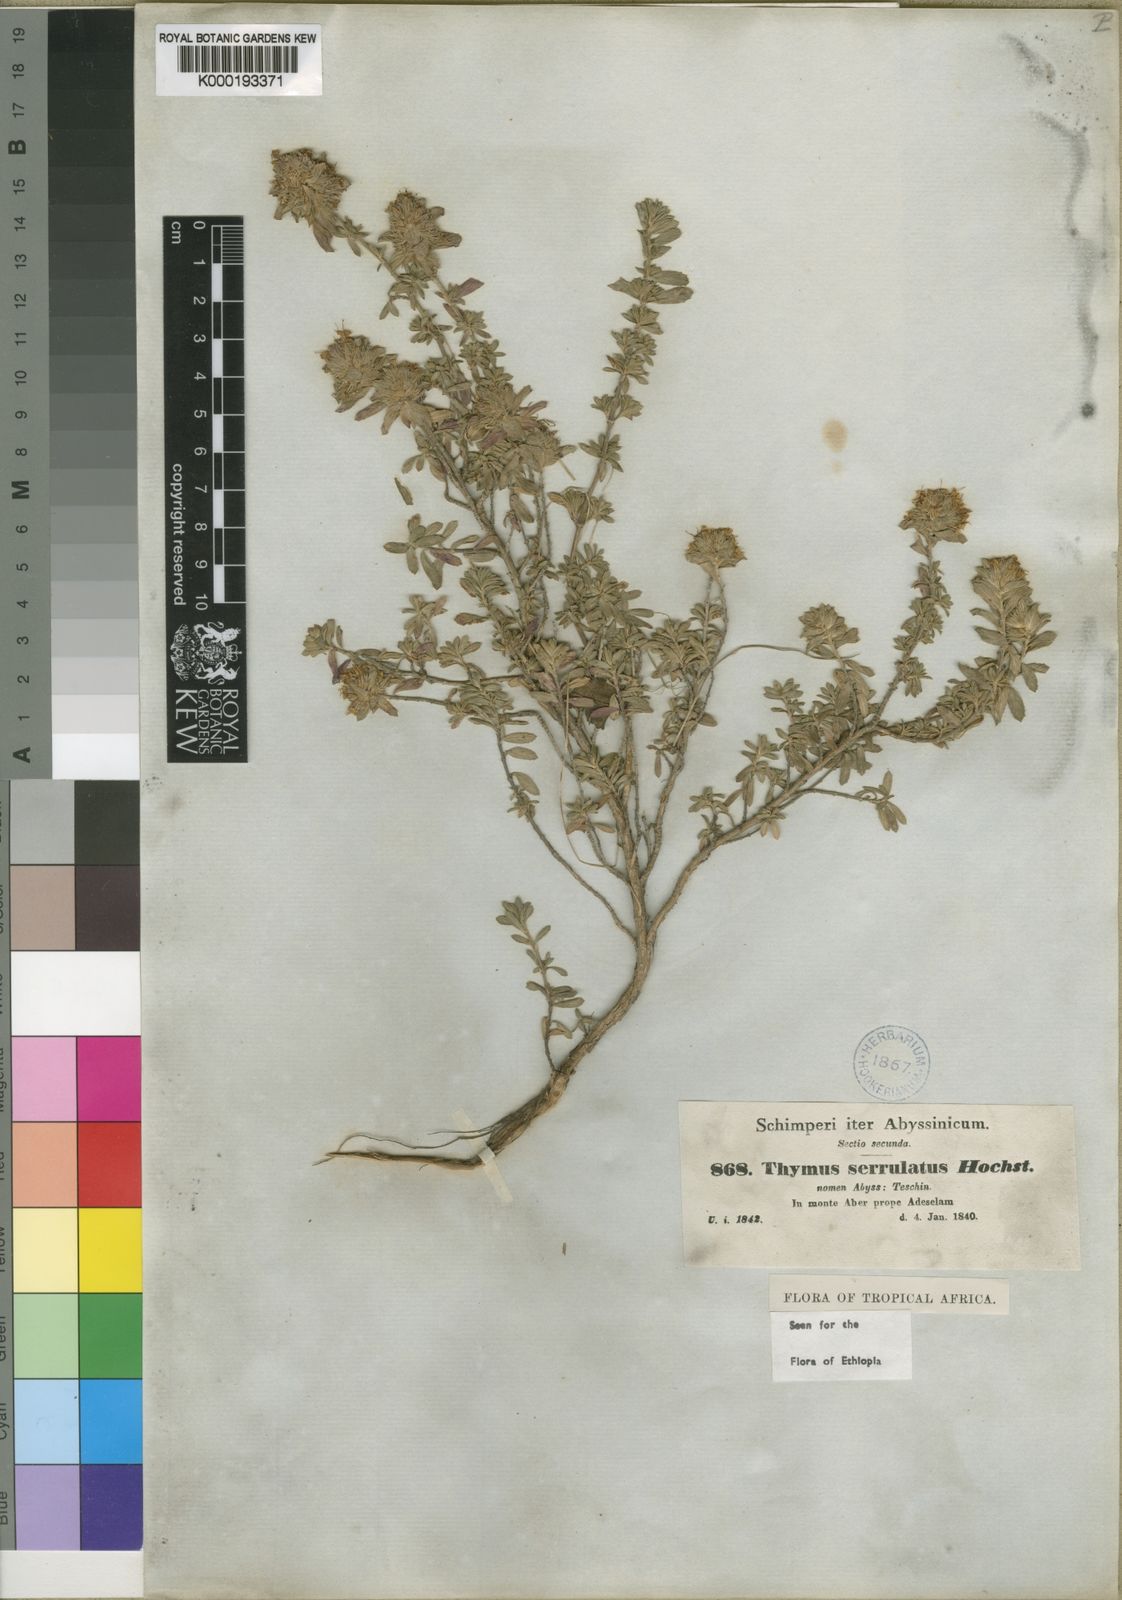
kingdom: Plantae
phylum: Tracheophyta
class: Magnoliopsida
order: Lamiales
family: Lamiaceae
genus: Thymus
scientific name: Thymus serrulatus
